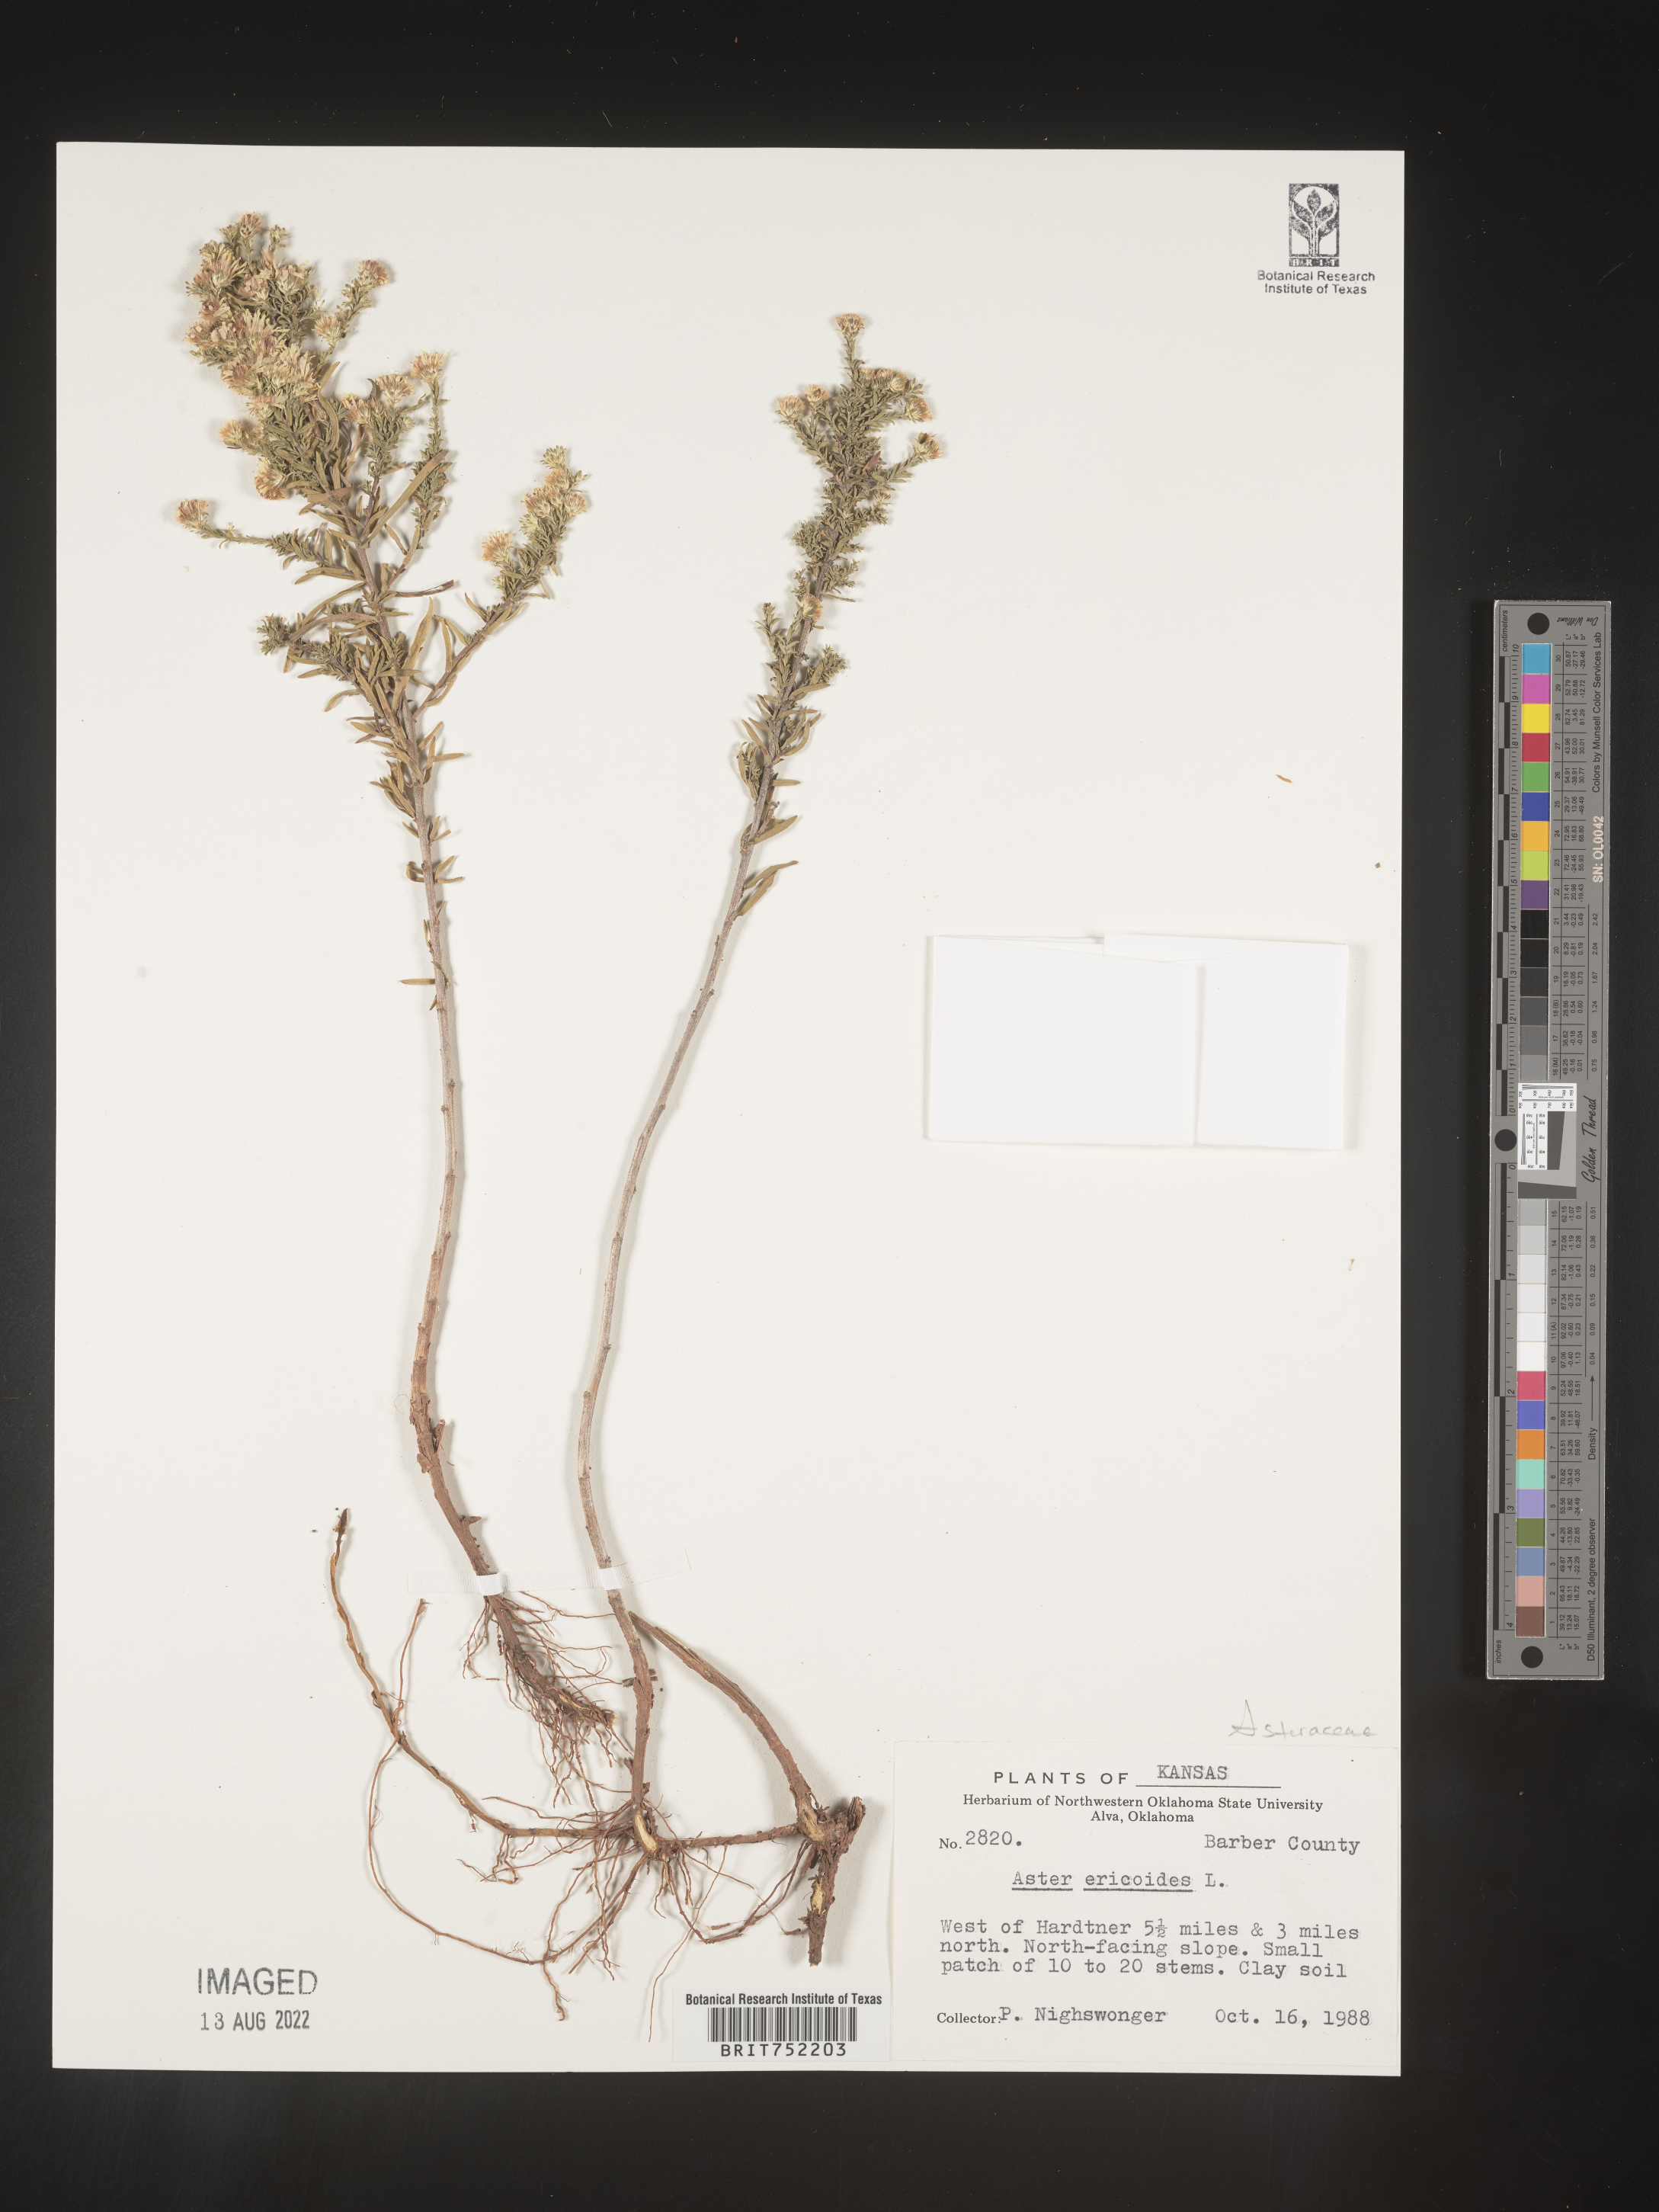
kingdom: Plantae
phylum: Tracheophyta
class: Magnoliopsida
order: Asterales
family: Asteraceae
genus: Symphyotrichum
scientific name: Symphyotrichum ericoides
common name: Heath aster
